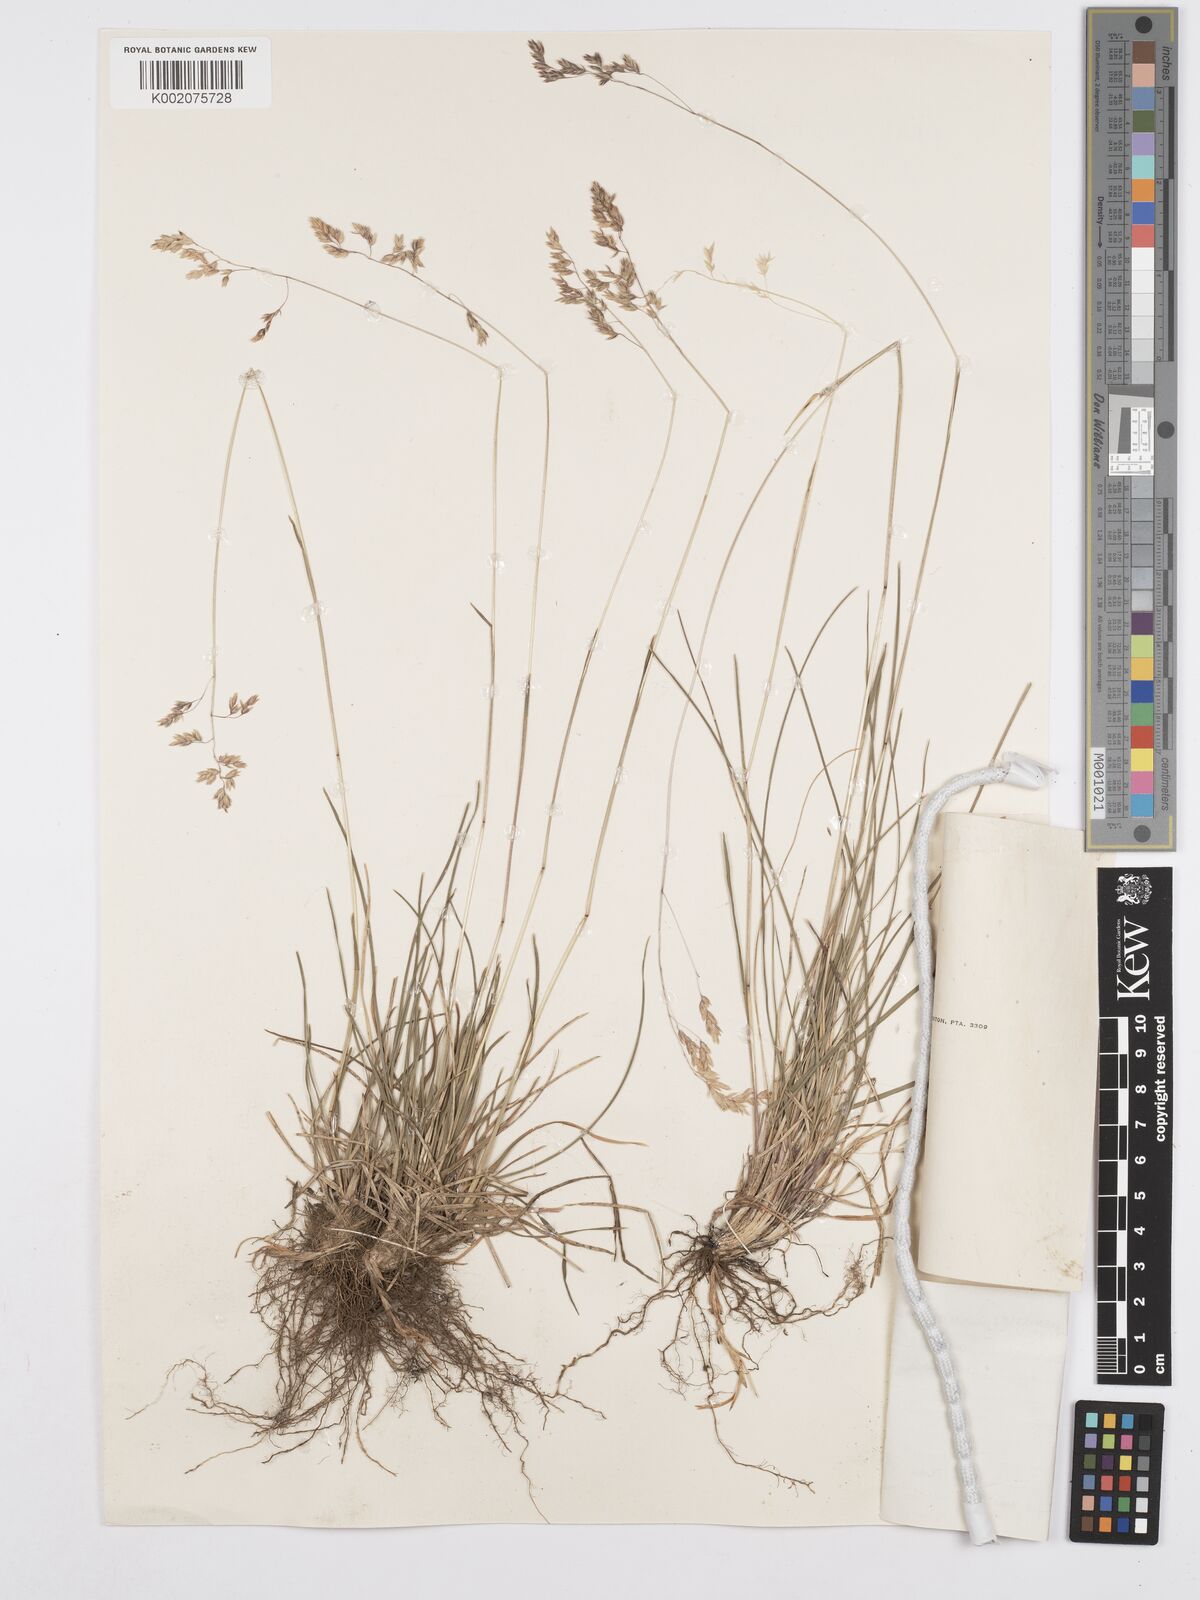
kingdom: Plantae
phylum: Tracheophyta
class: Liliopsida
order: Poales
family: Poaceae
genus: Poa
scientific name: Poa binata
